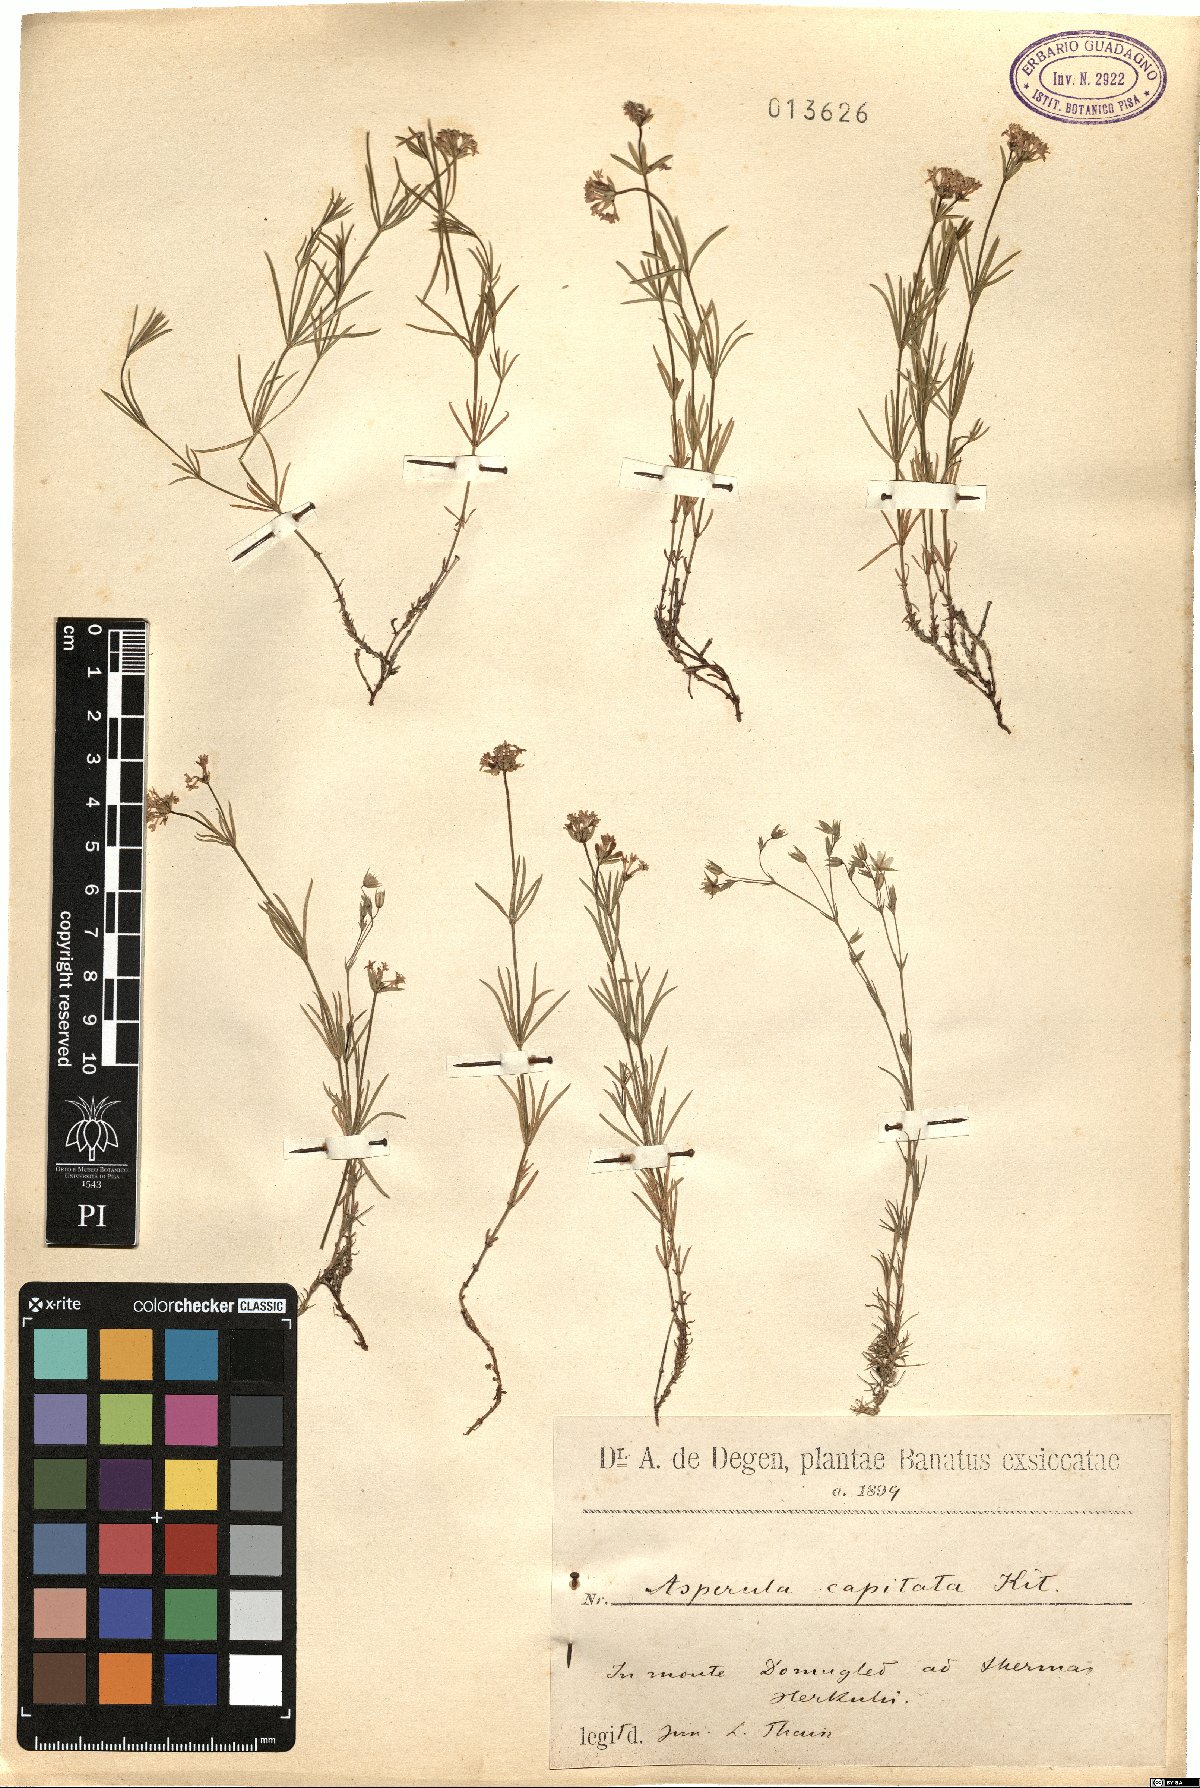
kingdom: Plantae
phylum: Tracheophyta
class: Magnoliopsida
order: Gentianales
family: Rubiaceae
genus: Hexaphylla
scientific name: Hexaphylla capitata
